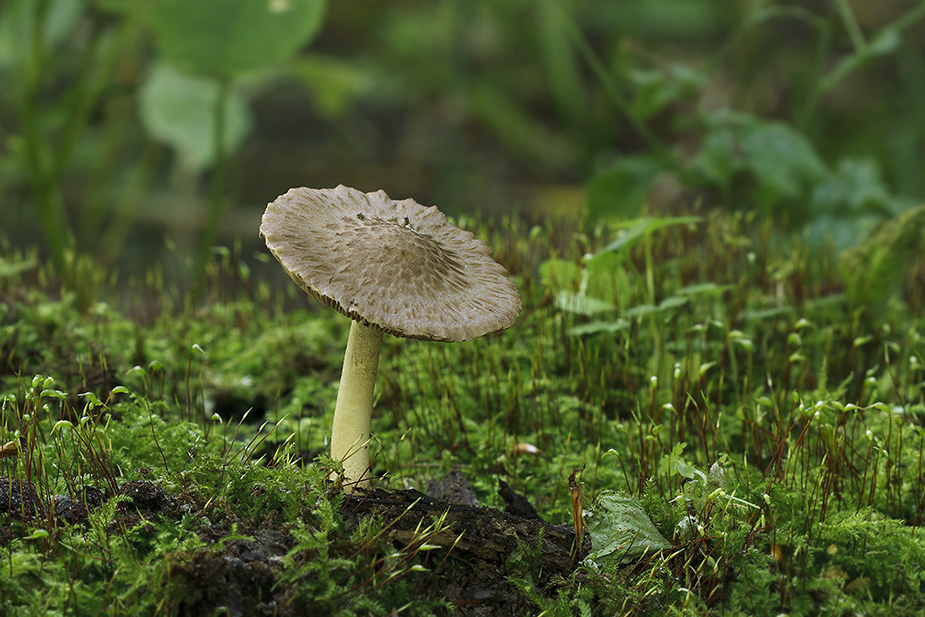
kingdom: Fungi
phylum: Basidiomycota
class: Agaricomycetes
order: Agaricales
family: Psathyrellaceae
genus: Cystoagaricus
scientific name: Cystoagaricus lepidotoides
